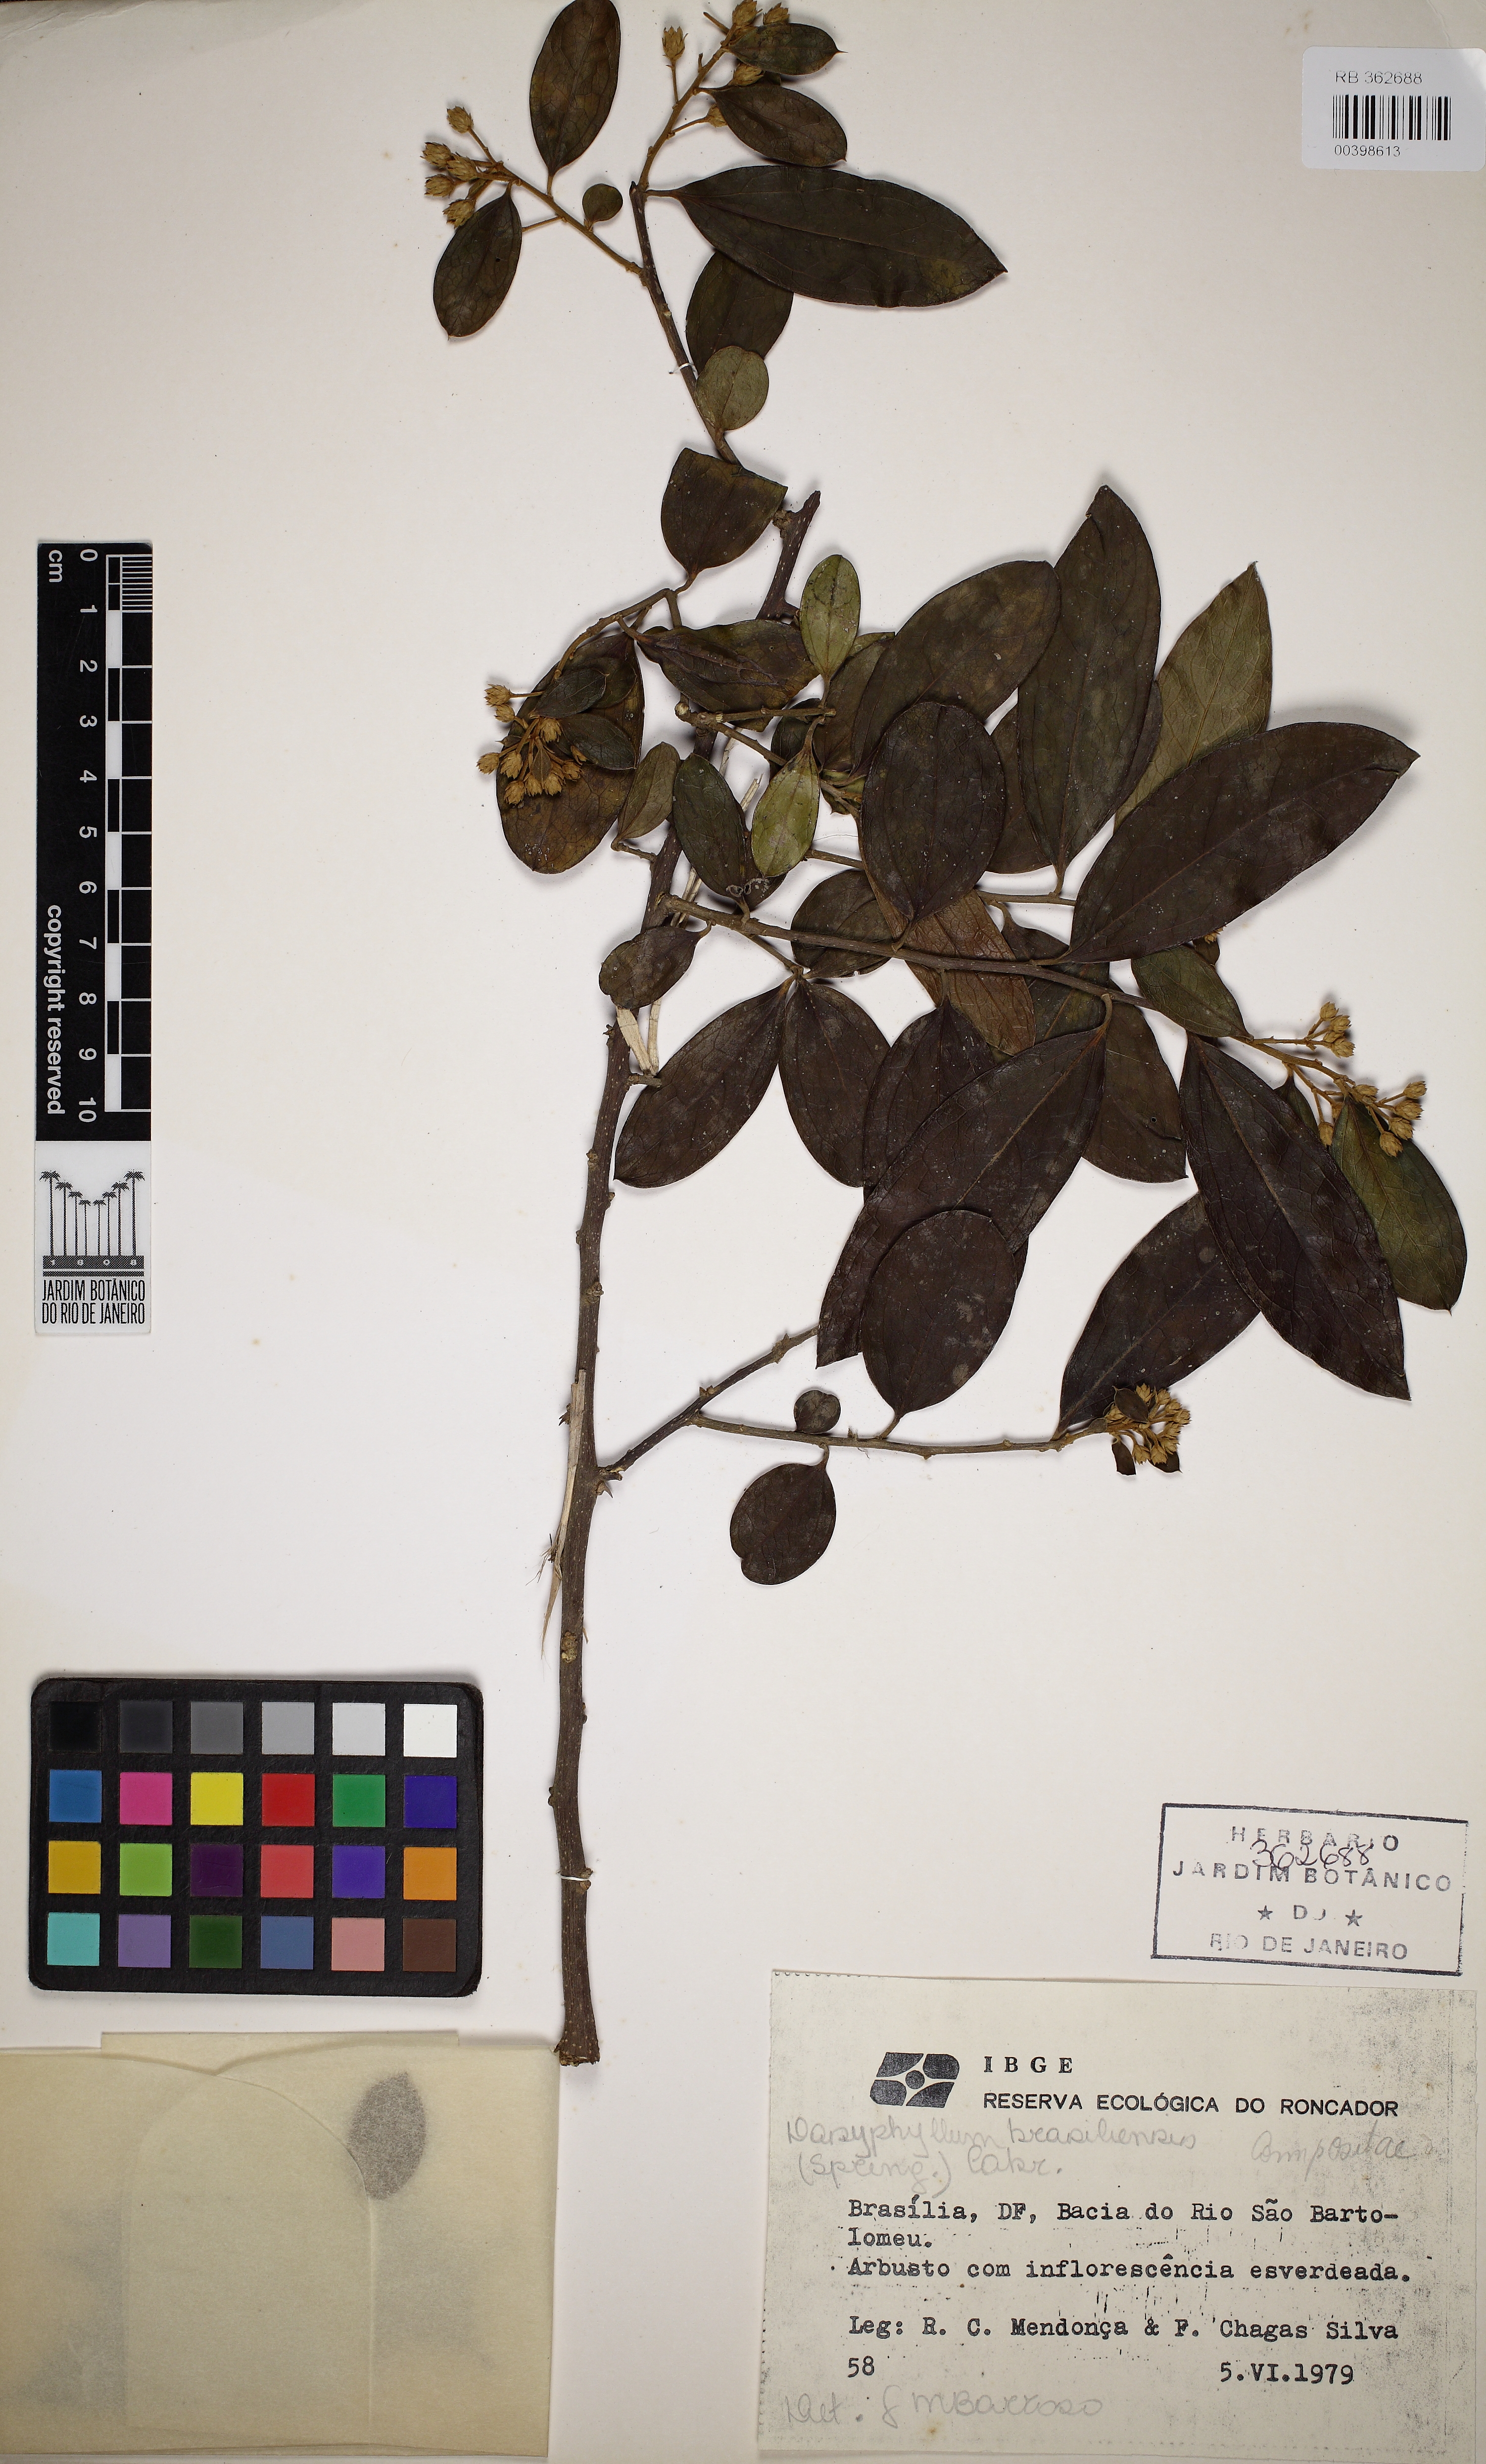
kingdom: Plantae
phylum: Tracheophyta
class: Magnoliopsida
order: Asterales
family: Asteraceae
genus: Dasyphyllum
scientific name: Dasyphyllum brasiliense
